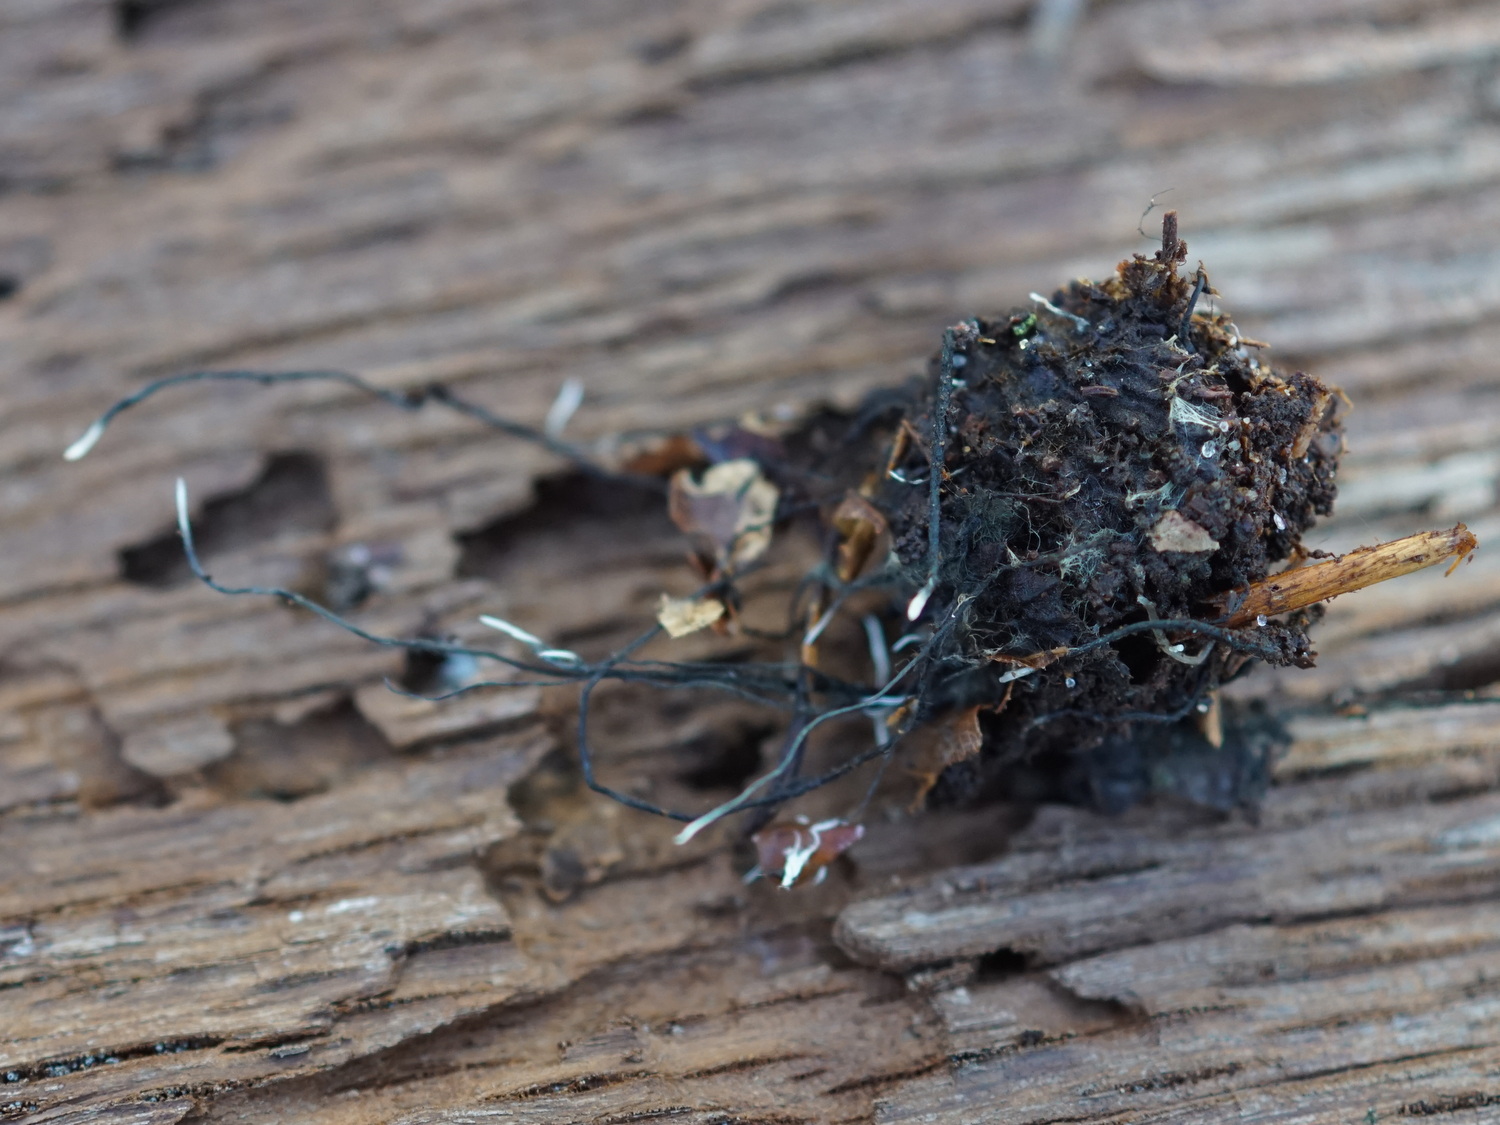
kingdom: Fungi
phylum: Ascomycota
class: Sordariomycetes
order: Xylariales
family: Xylariaceae
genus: Xylaria
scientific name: Xylaria carpophila
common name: bogskål-stødsvamp
